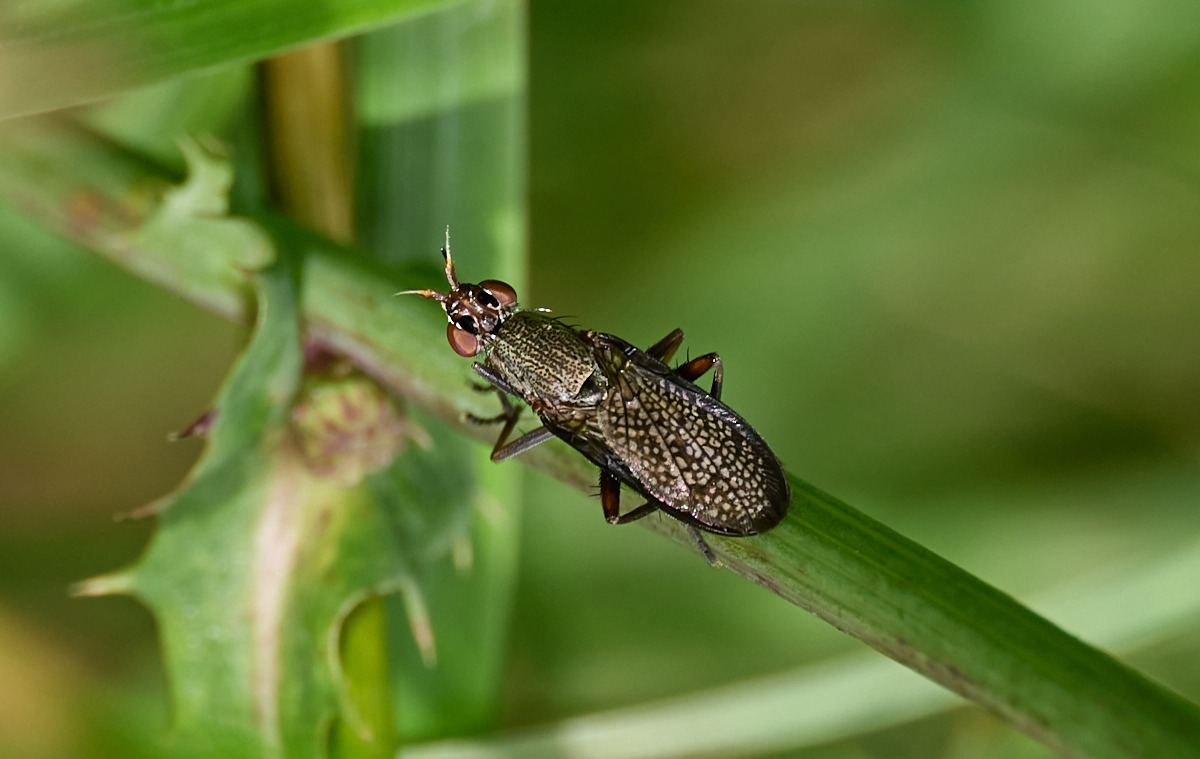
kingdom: Animalia
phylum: Arthropoda
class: Insecta
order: Diptera
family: Sciomyzidae
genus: Coremacera
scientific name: Coremacera marginata
